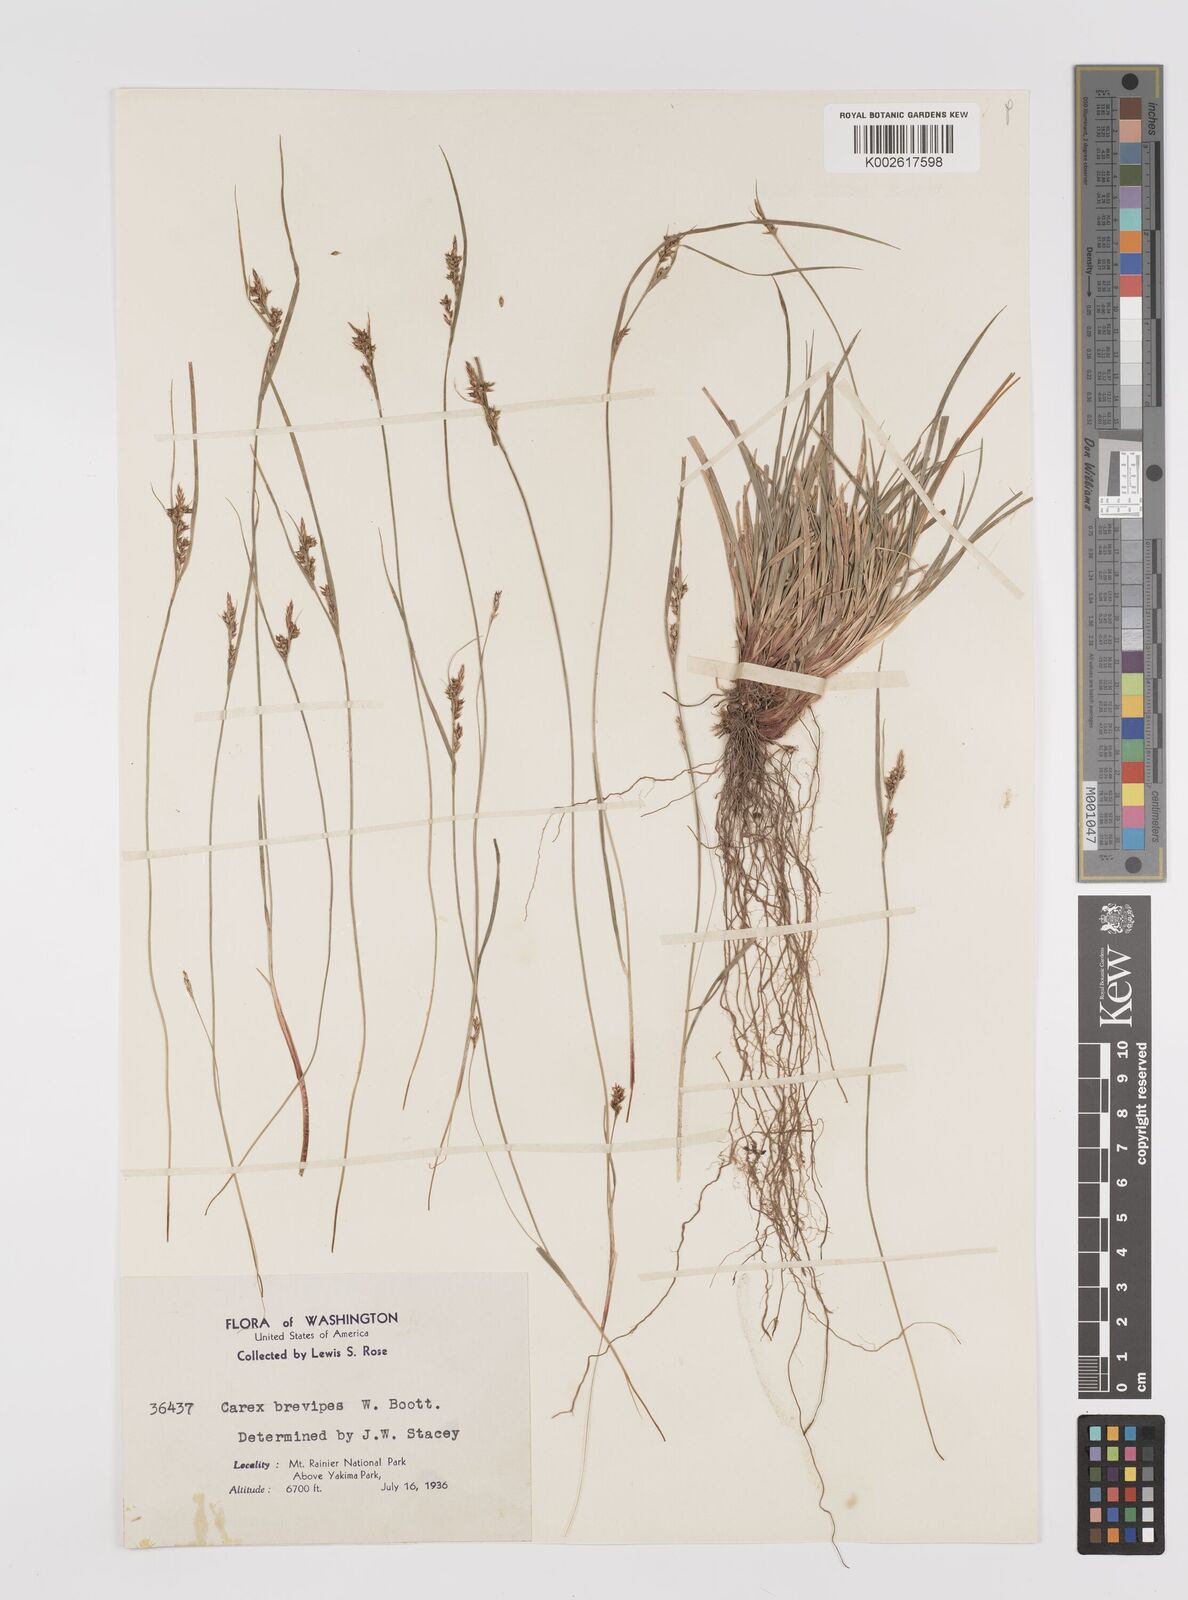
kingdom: Plantae
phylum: Tracheophyta
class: Liliopsida
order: Poales
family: Cyperaceae
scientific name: Cyperaceae
